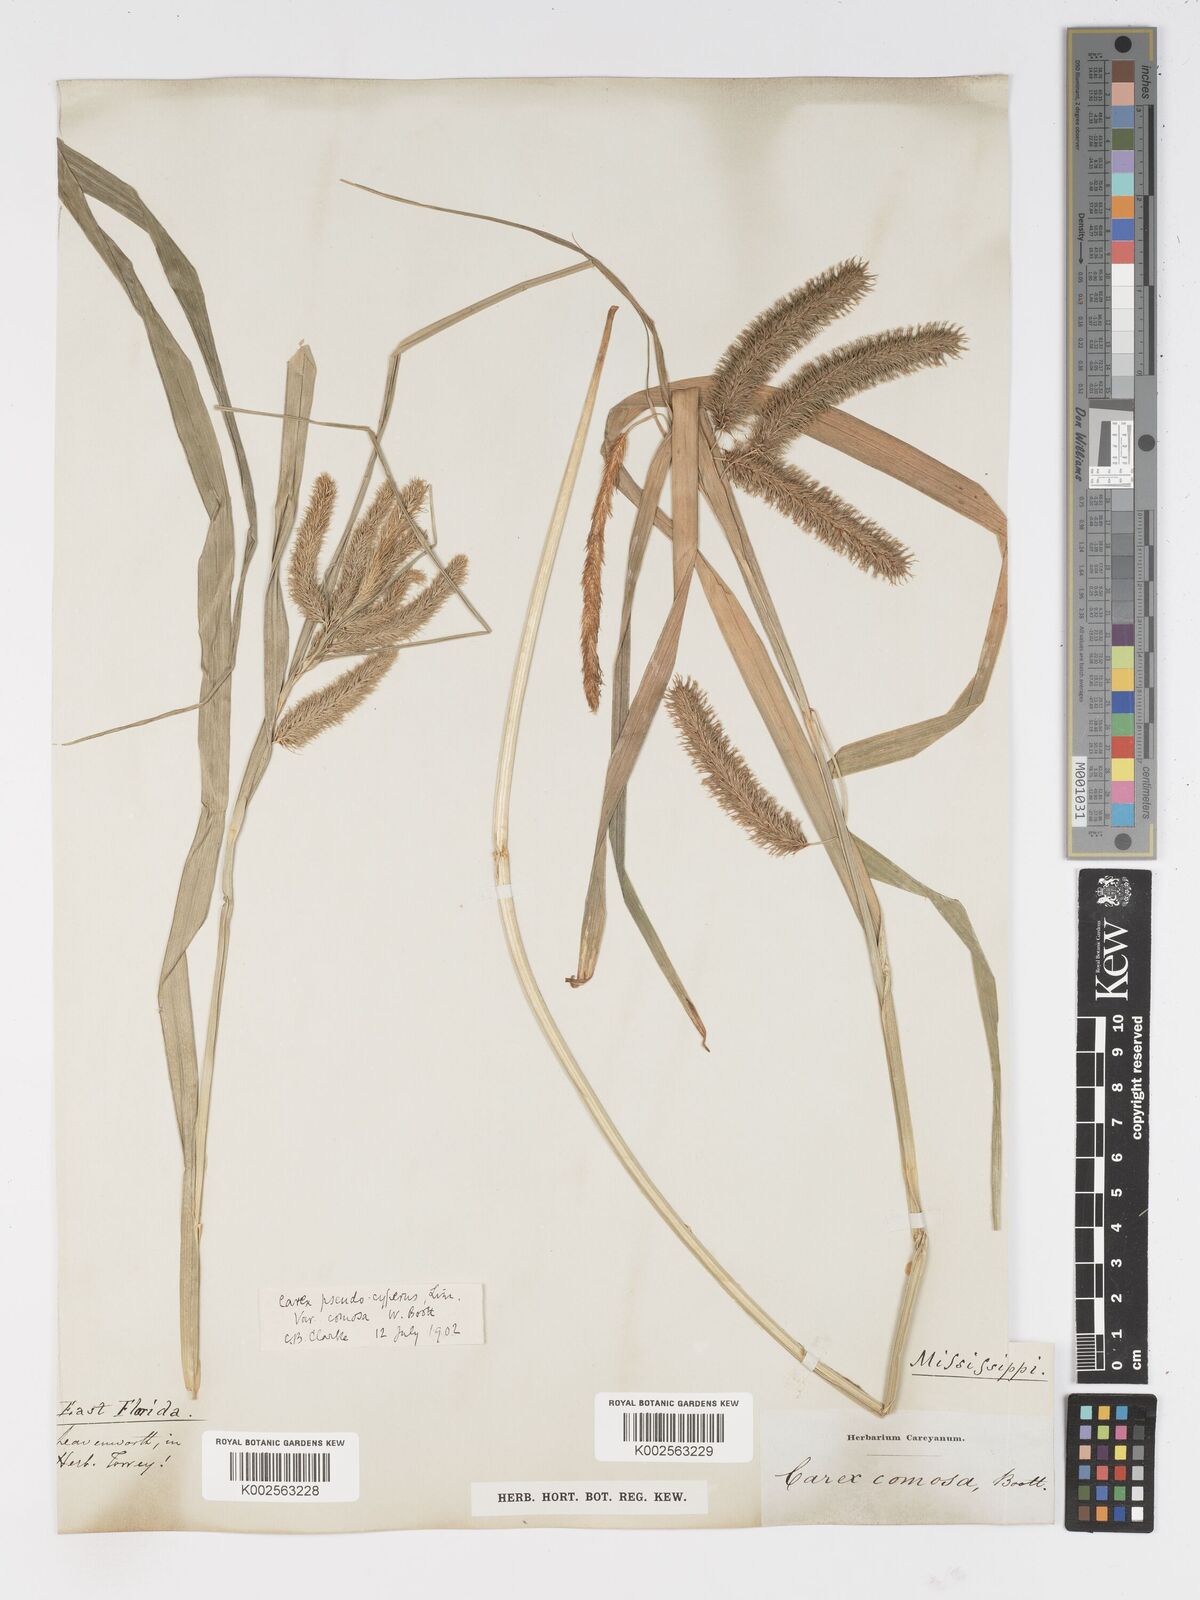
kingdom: Plantae
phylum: Tracheophyta
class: Liliopsida
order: Poales
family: Cyperaceae
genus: Carex
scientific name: Carex comosa
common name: Bristly sedge
